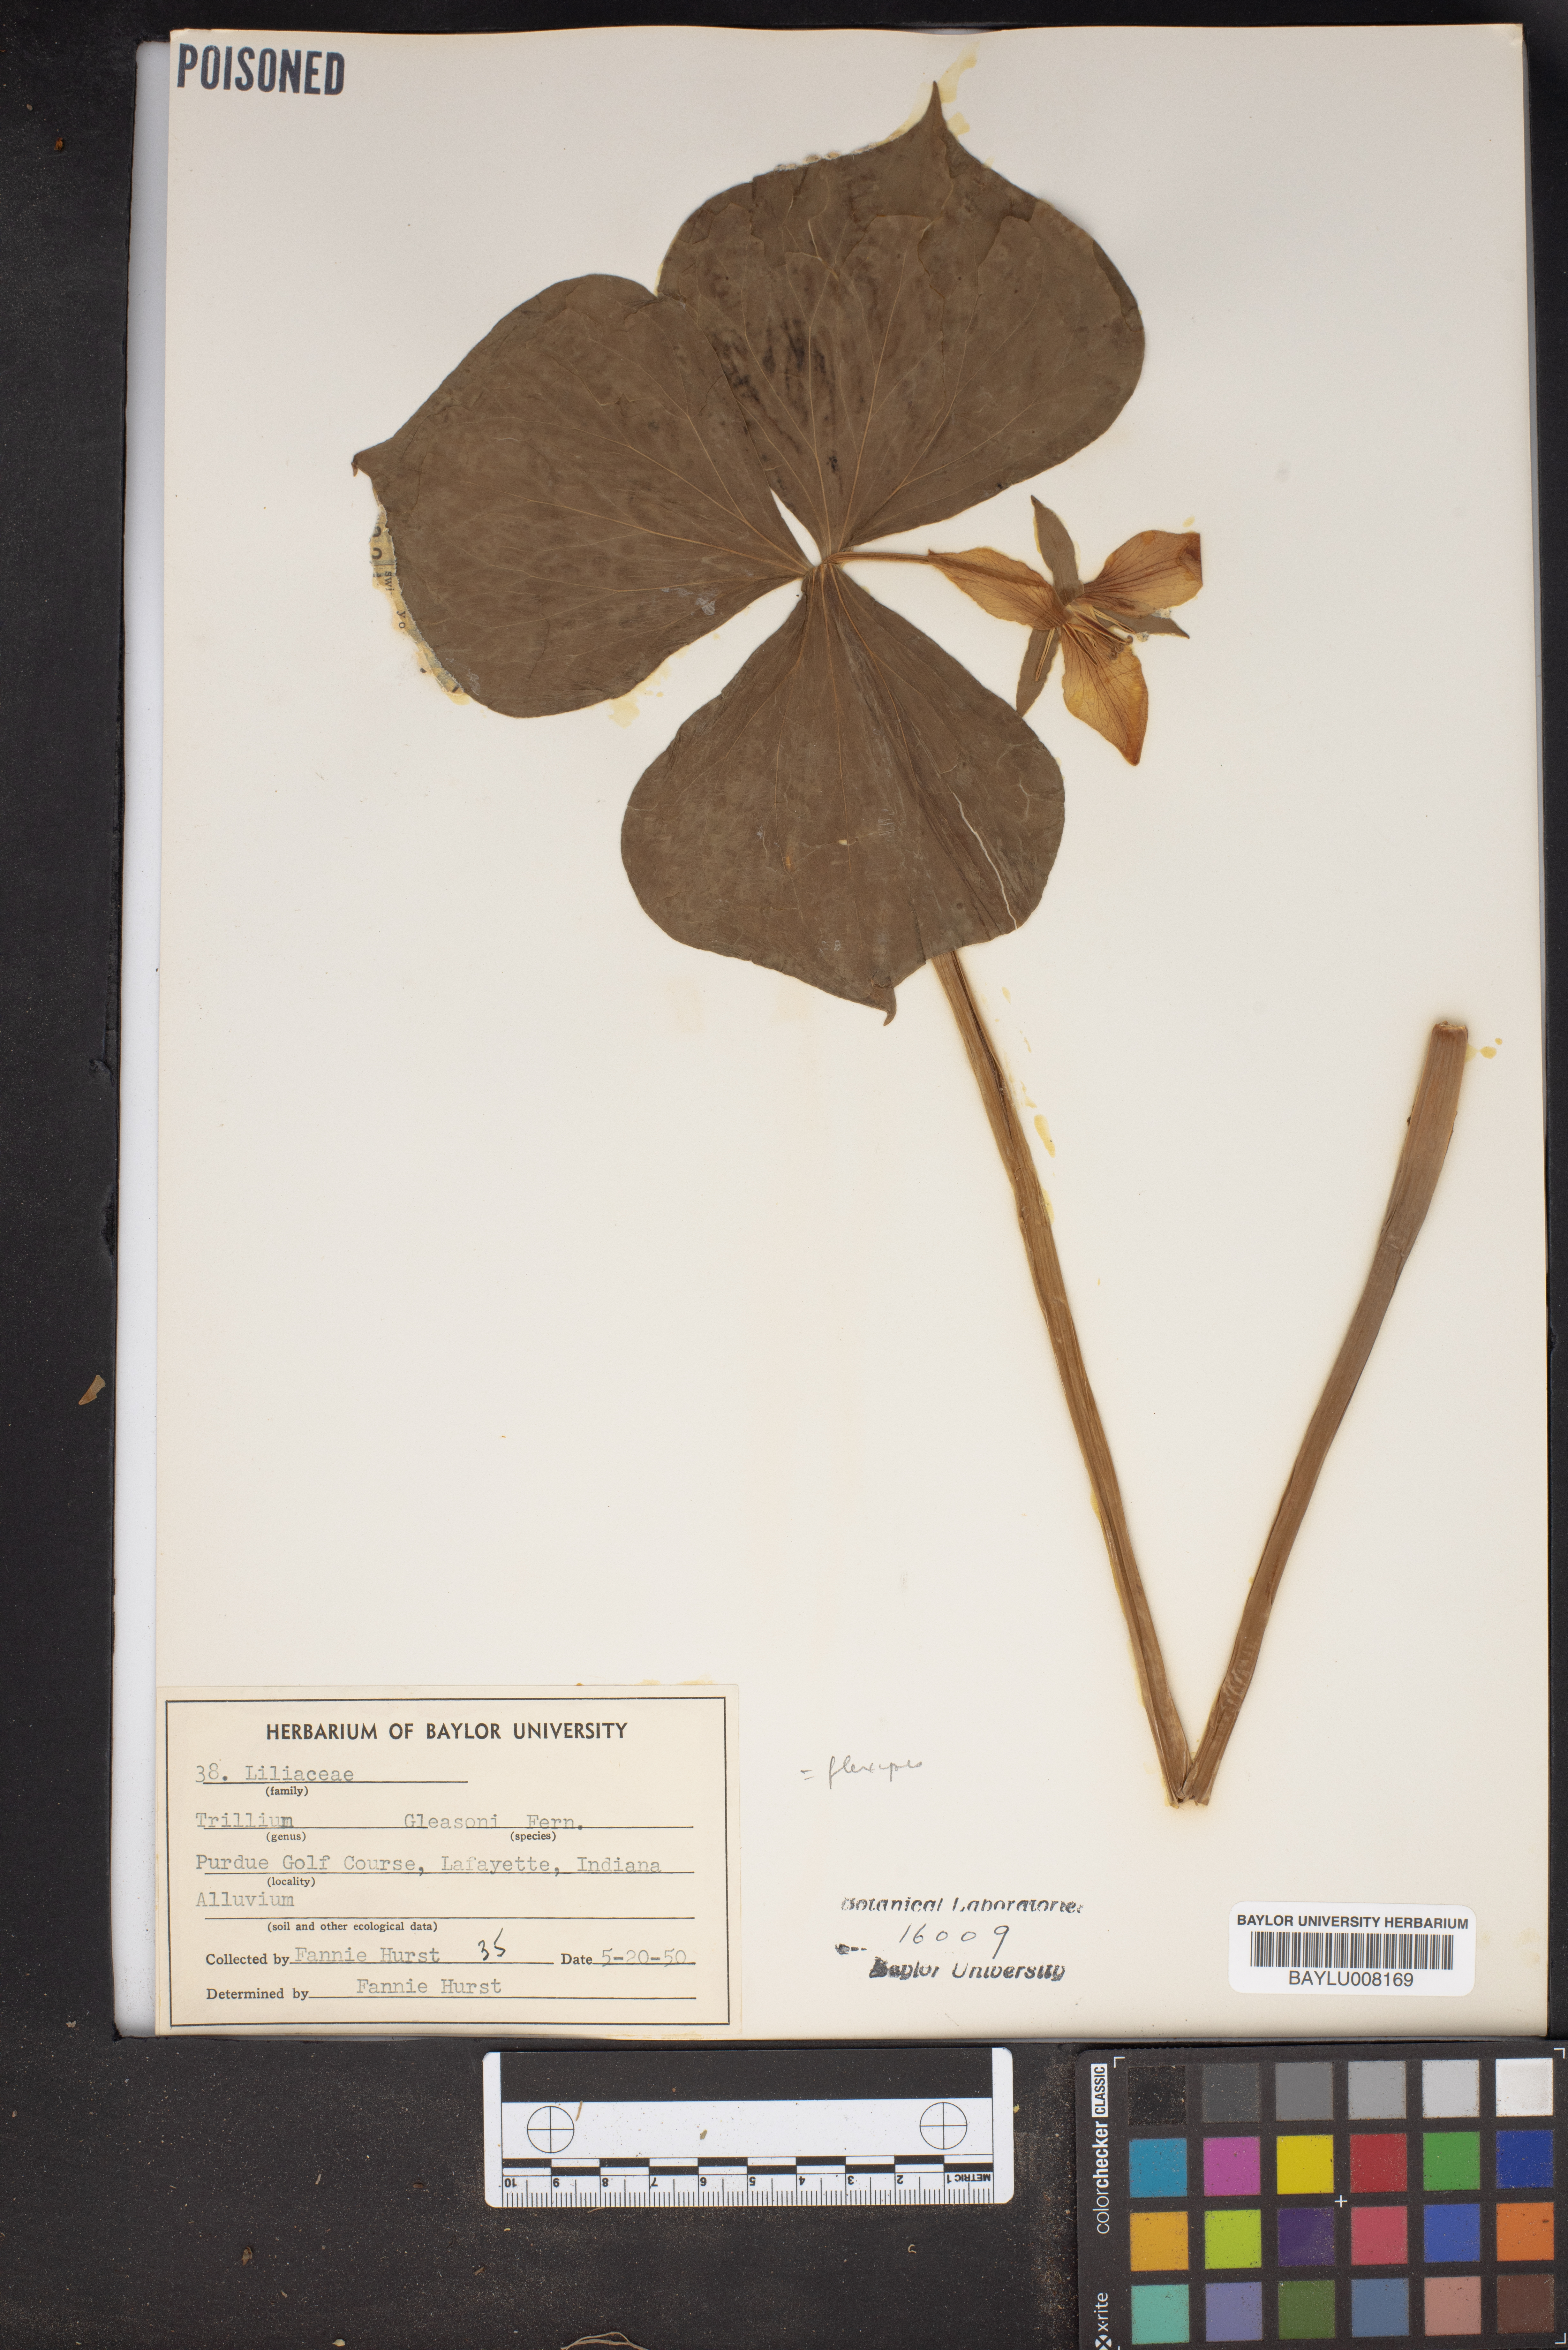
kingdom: Plantae
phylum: Tracheophyta
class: Liliopsida
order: Liliales
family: Melanthiaceae
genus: Trillium
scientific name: Trillium flexipes
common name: Drooping trillium
